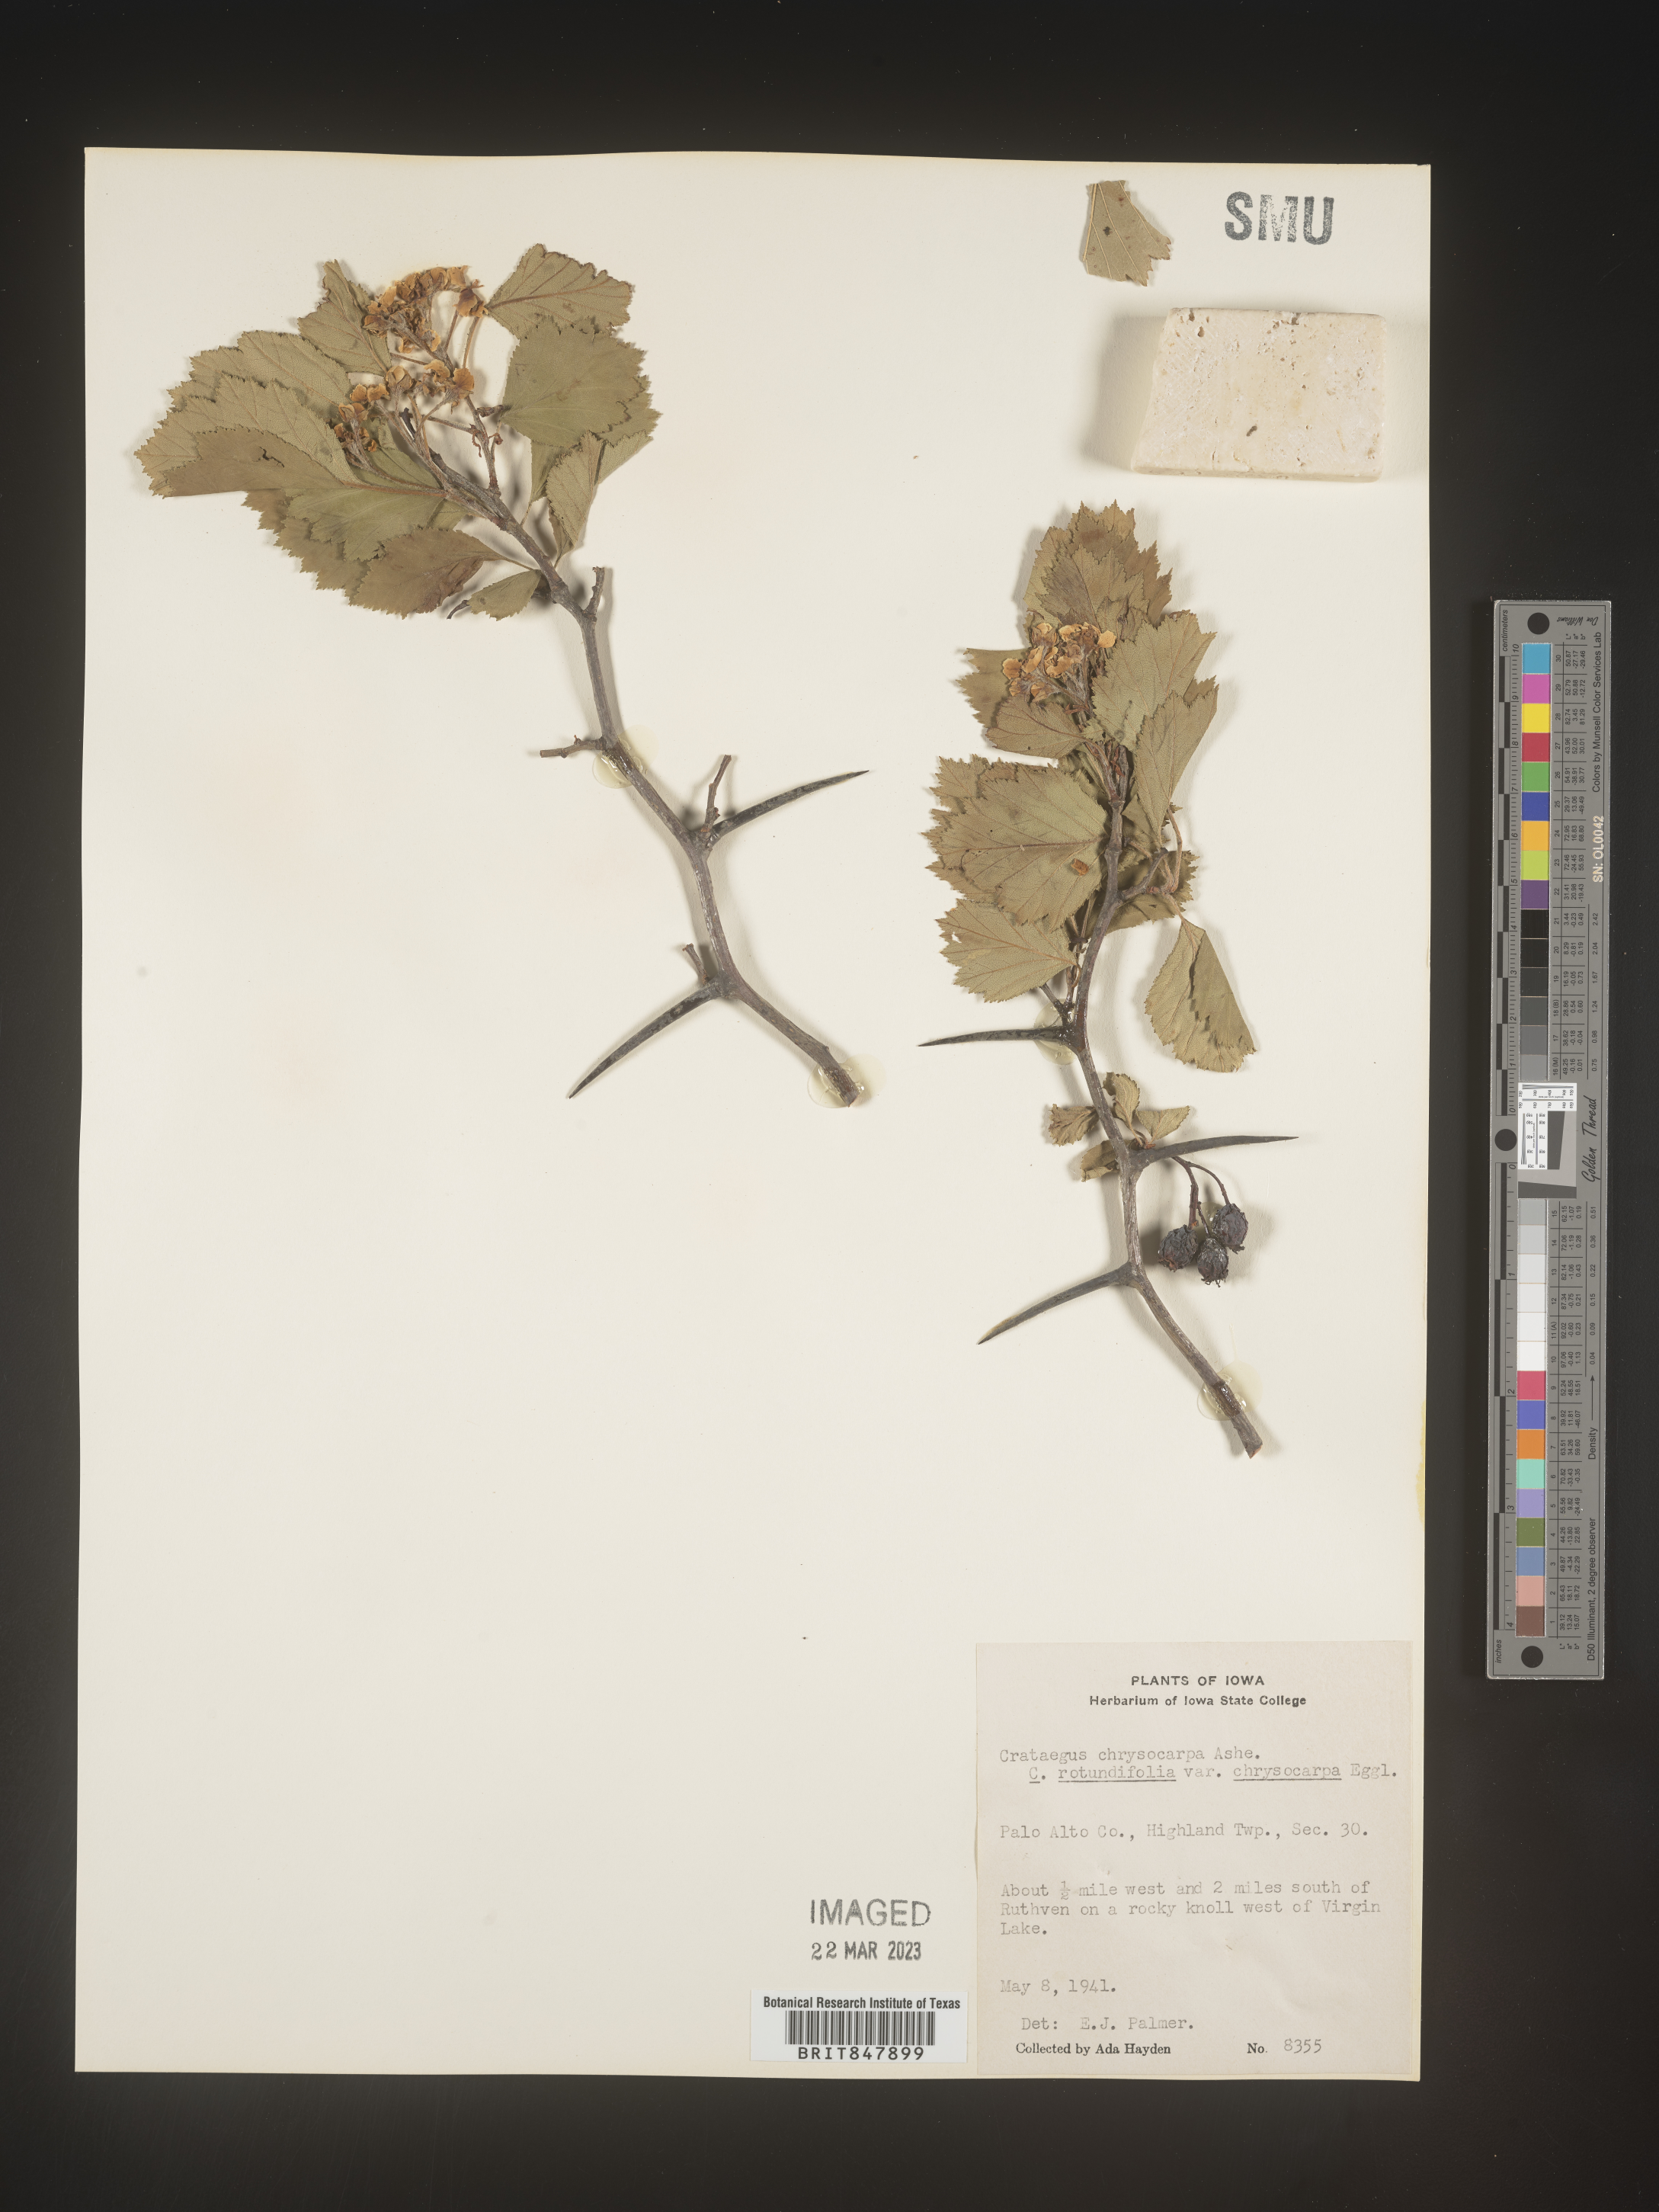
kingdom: Plantae
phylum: Tracheophyta
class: Magnoliopsida
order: Rosales
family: Rosaceae
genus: Crataegus
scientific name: Crataegus chrysocarpa
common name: Fire-berry hawthorn
